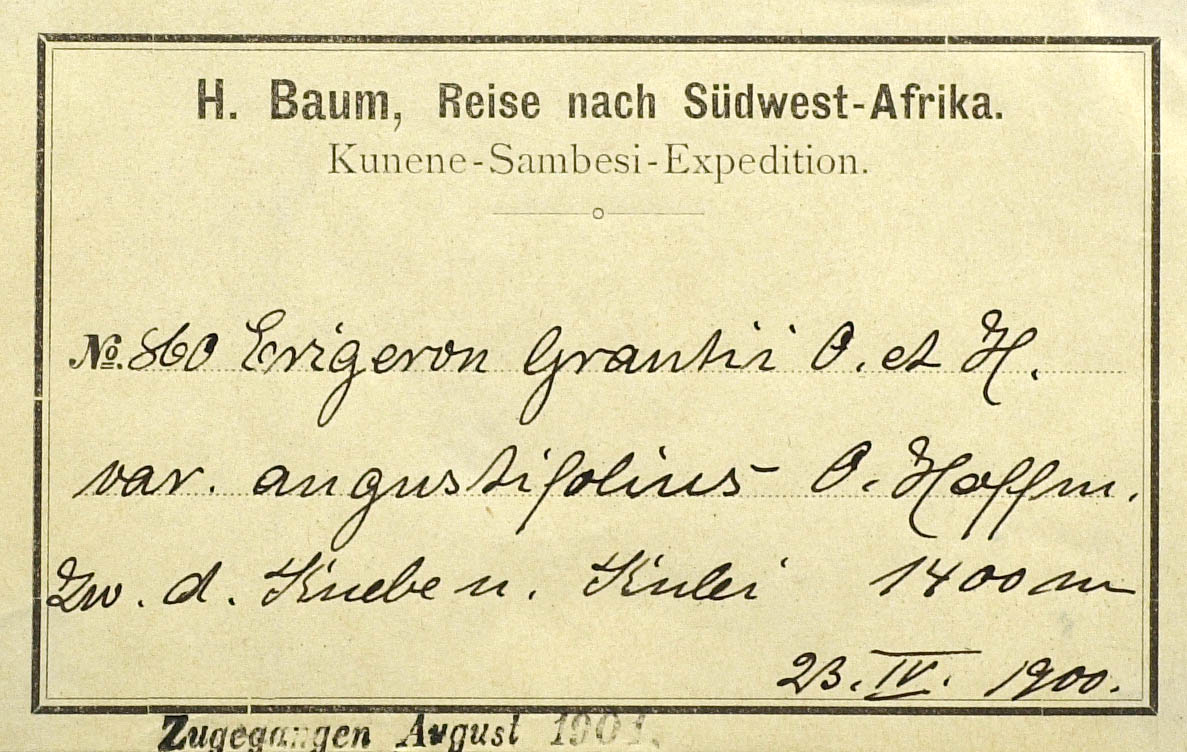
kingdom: Plantae
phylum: Tracheophyta
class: Magnoliopsida
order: Asterales
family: Asteraceae
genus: Felicia
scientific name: Felicia welwitschii
